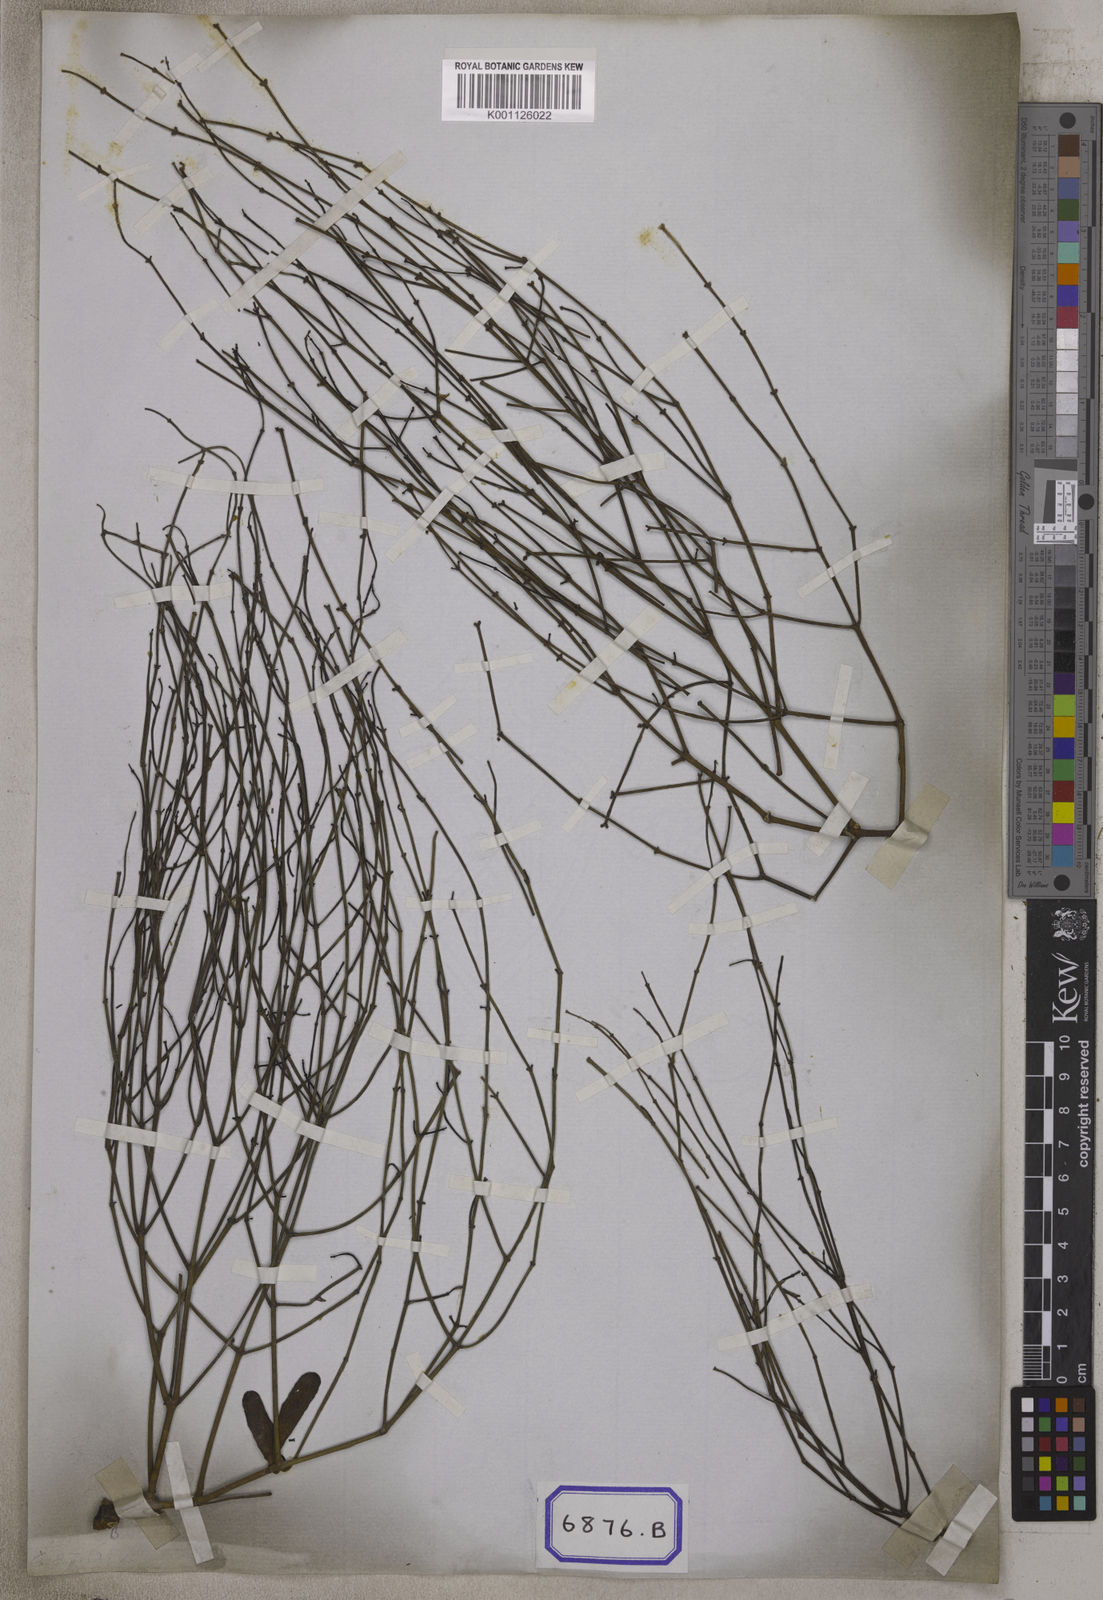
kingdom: Plantae
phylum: Tracheophyta
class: Magnoliopsida
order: Santalales
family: Viscaceae
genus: Viscum
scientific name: Viscum
